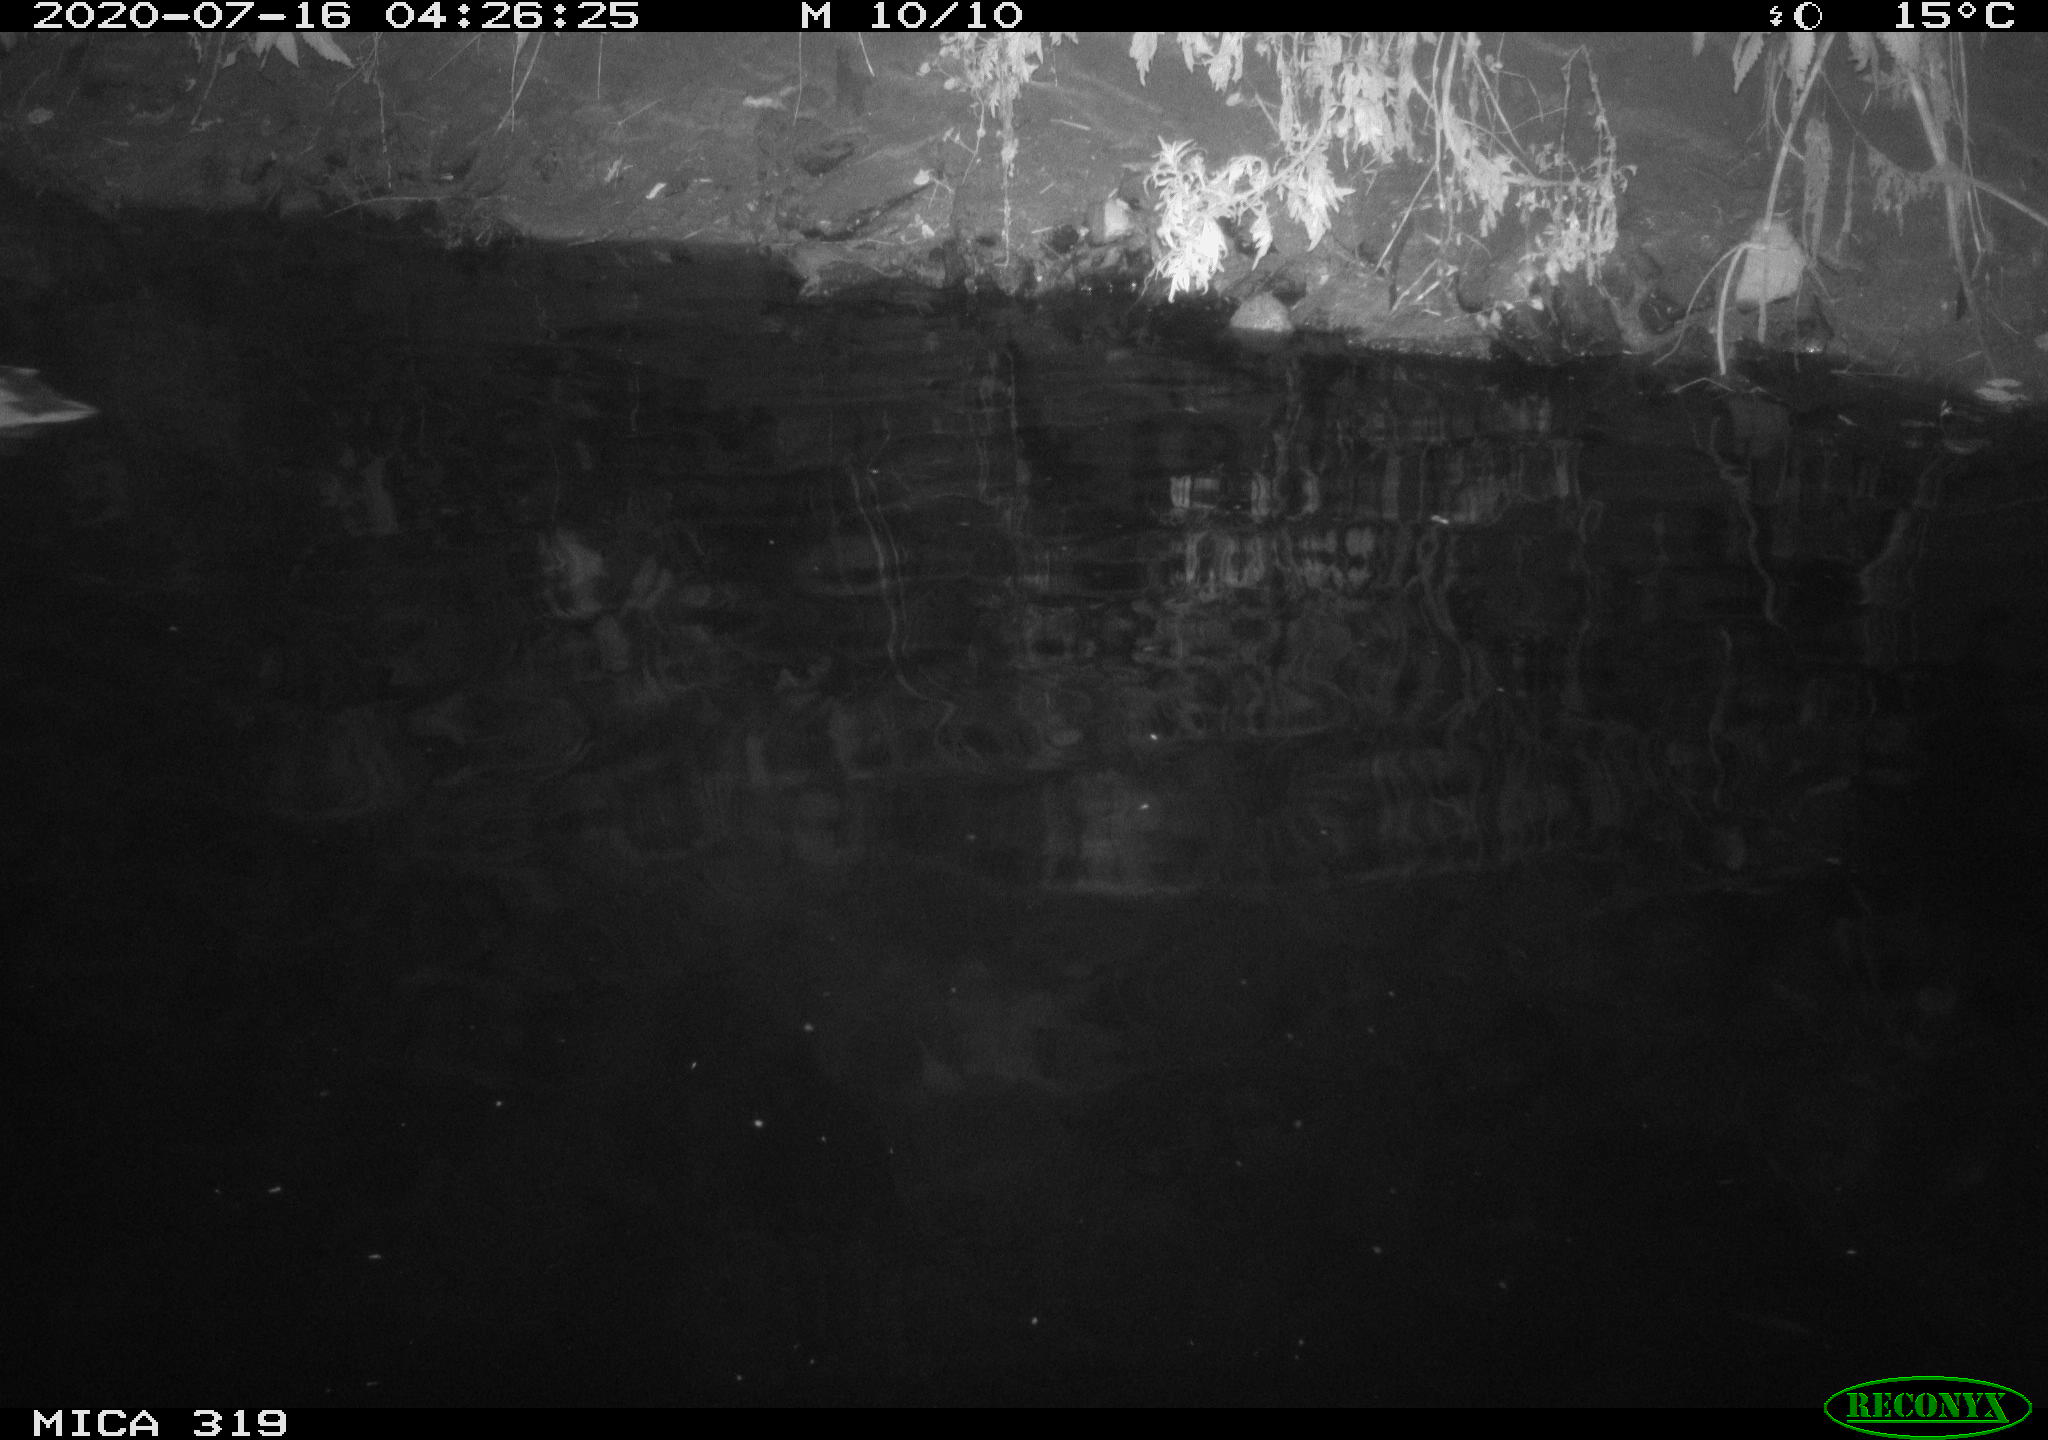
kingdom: Animalia
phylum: Chordata
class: Aves
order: Anseriformes
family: Anatidae
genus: Anas
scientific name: Anas platyrhynchos
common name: Mallard
